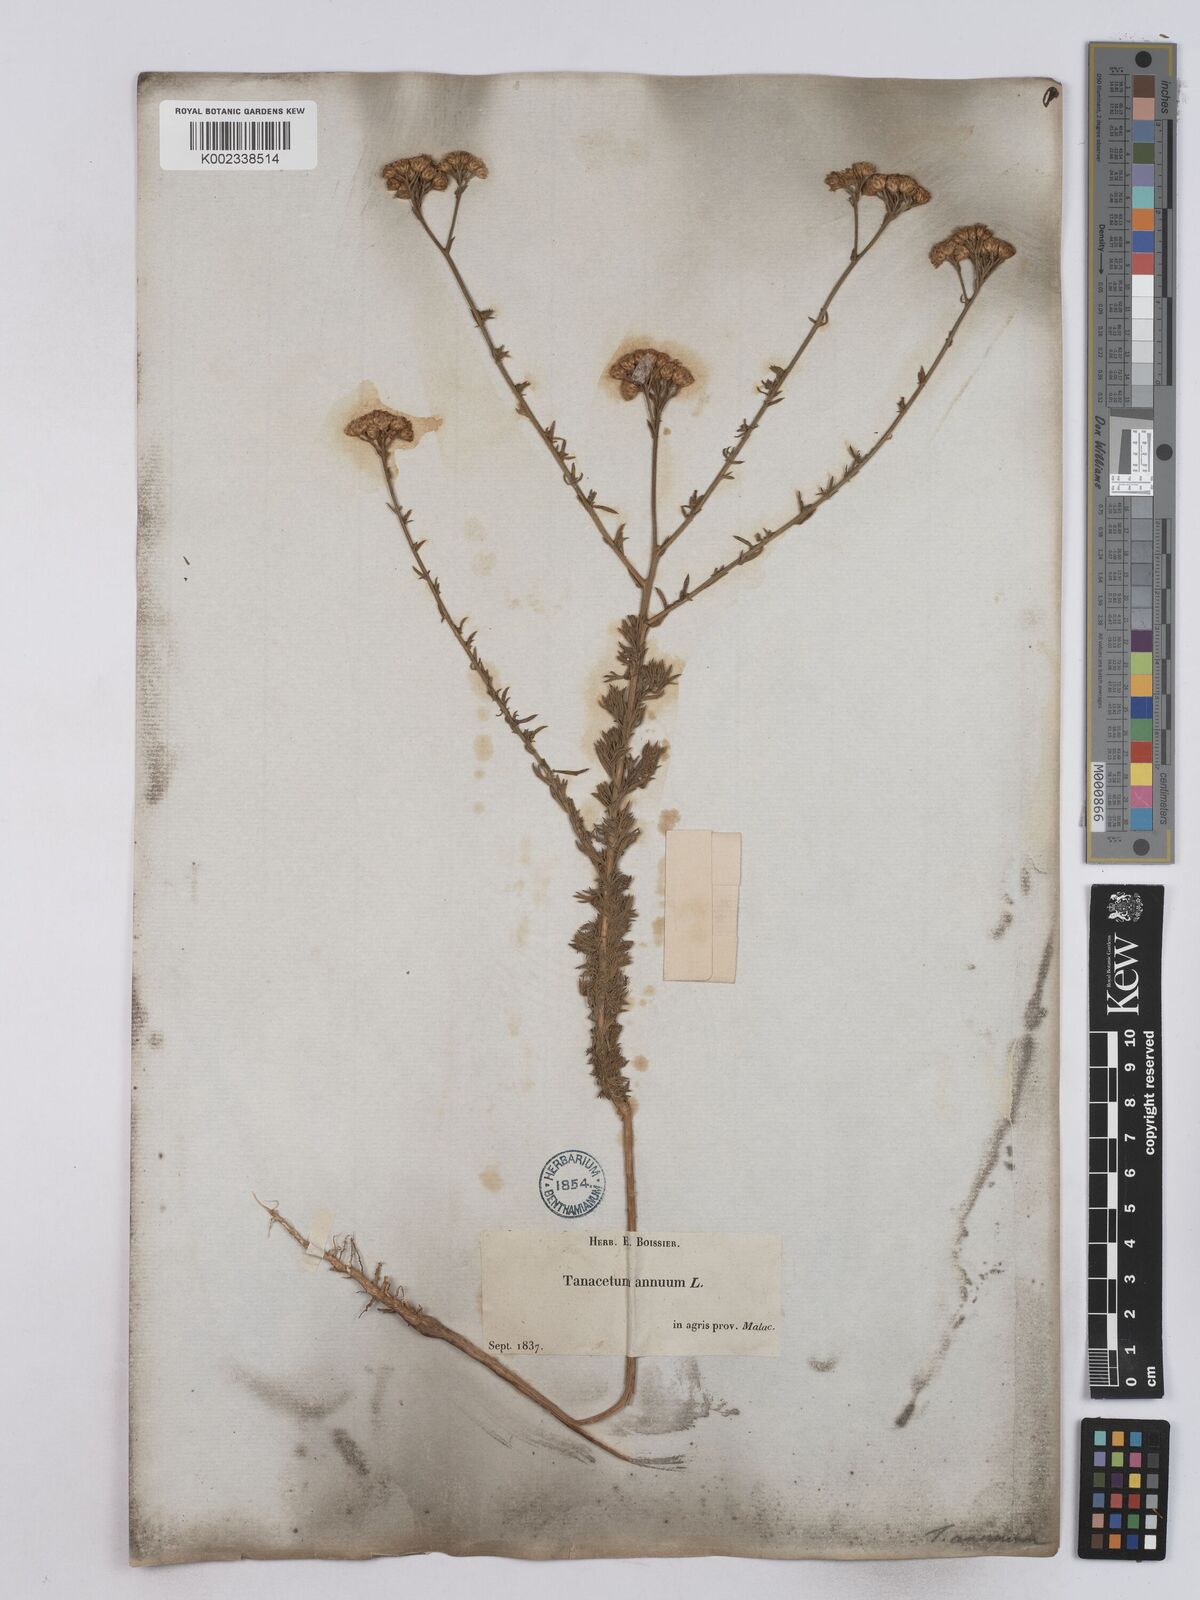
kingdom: Plantae
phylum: Tracheophyta
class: Magnoliopsida
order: Asterales
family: Asteraceae
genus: Vogtia
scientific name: Vogtia annua
